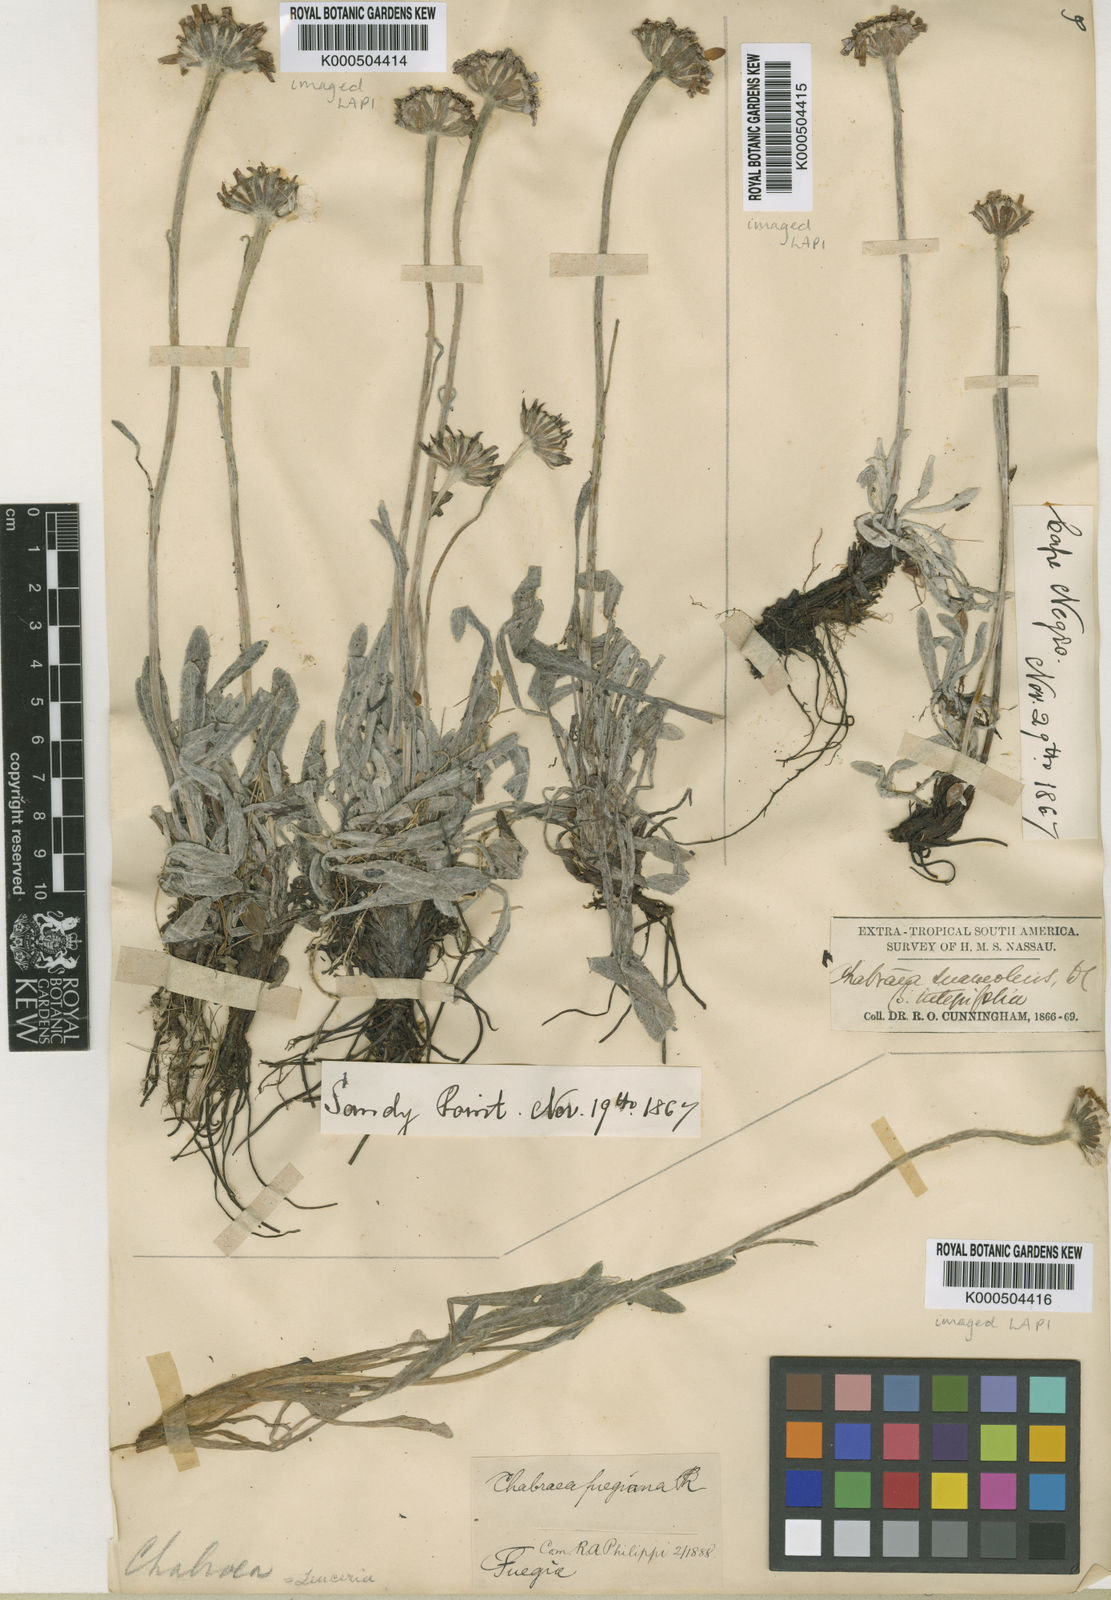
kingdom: Plantae
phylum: Tracheophyta
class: Magnoliopsida
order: Asterales
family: Asteraceae
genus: Leucheria
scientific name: Leucheria
